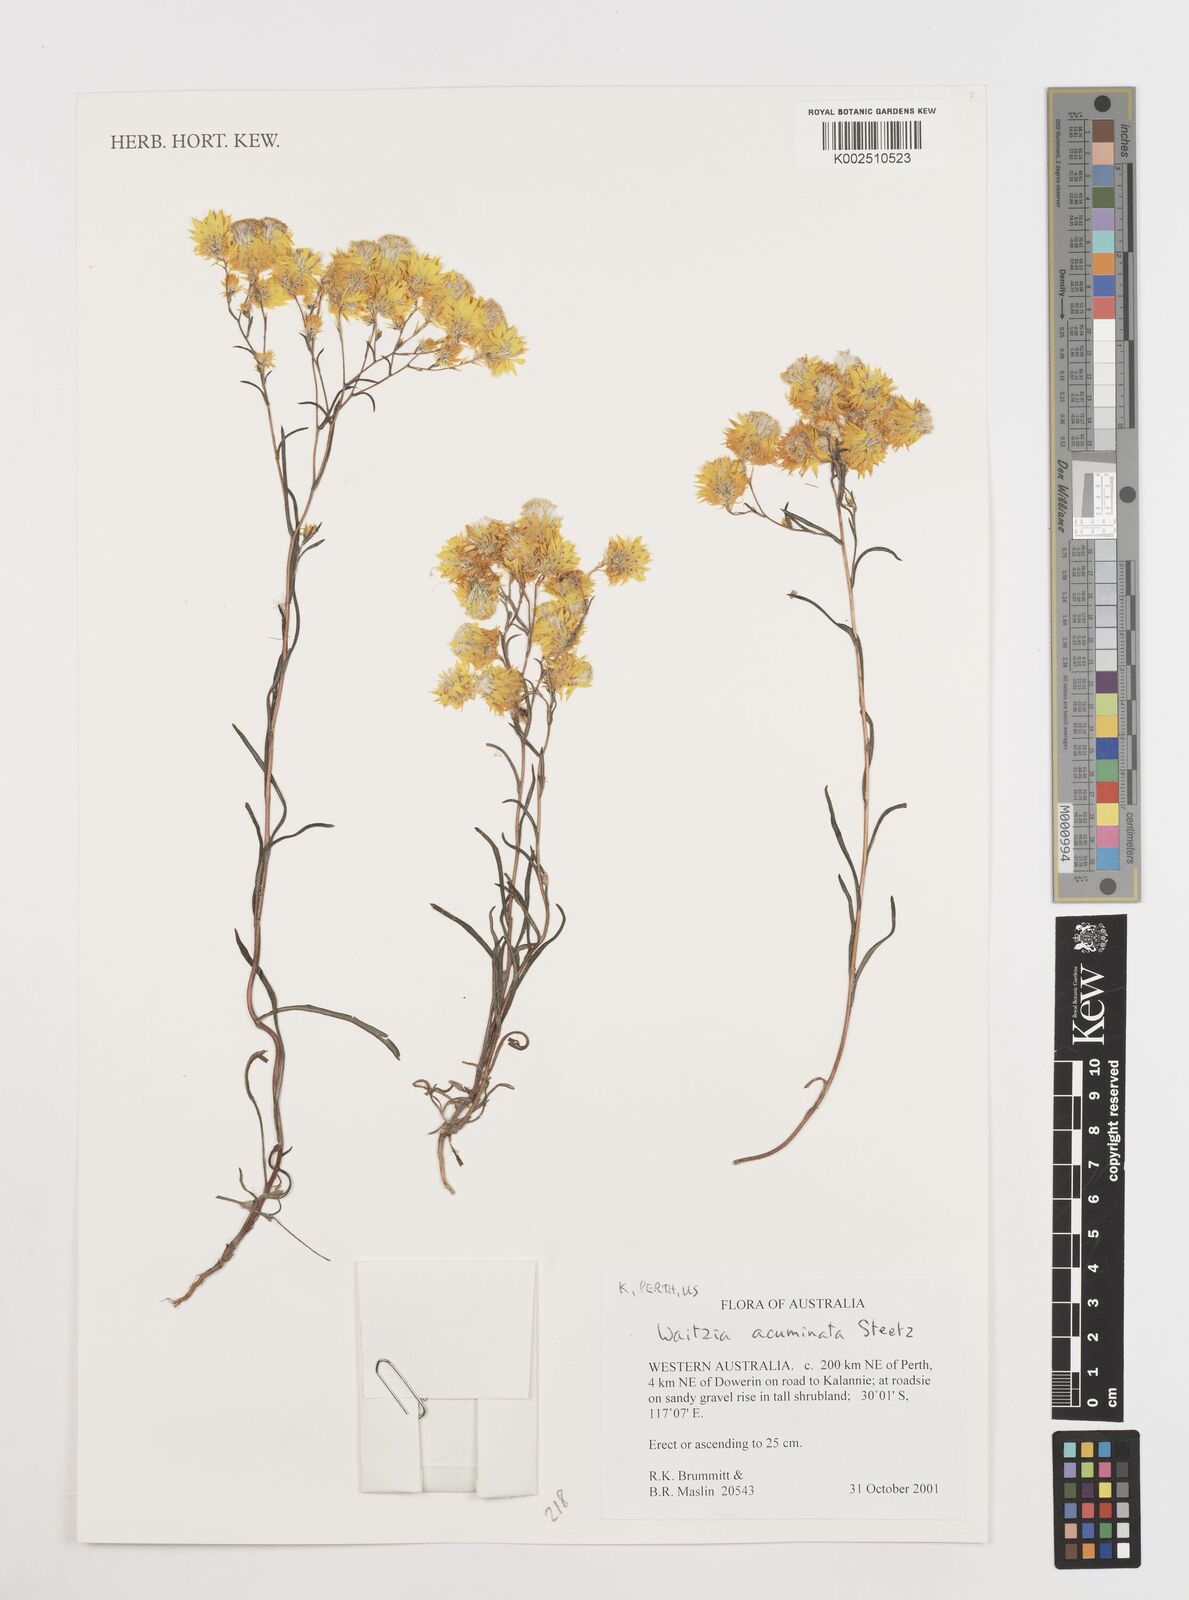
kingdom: Plantae
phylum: Tracheophyta
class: Magnoliopsida
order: Asterales
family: Asteraceae
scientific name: Asteraceae
